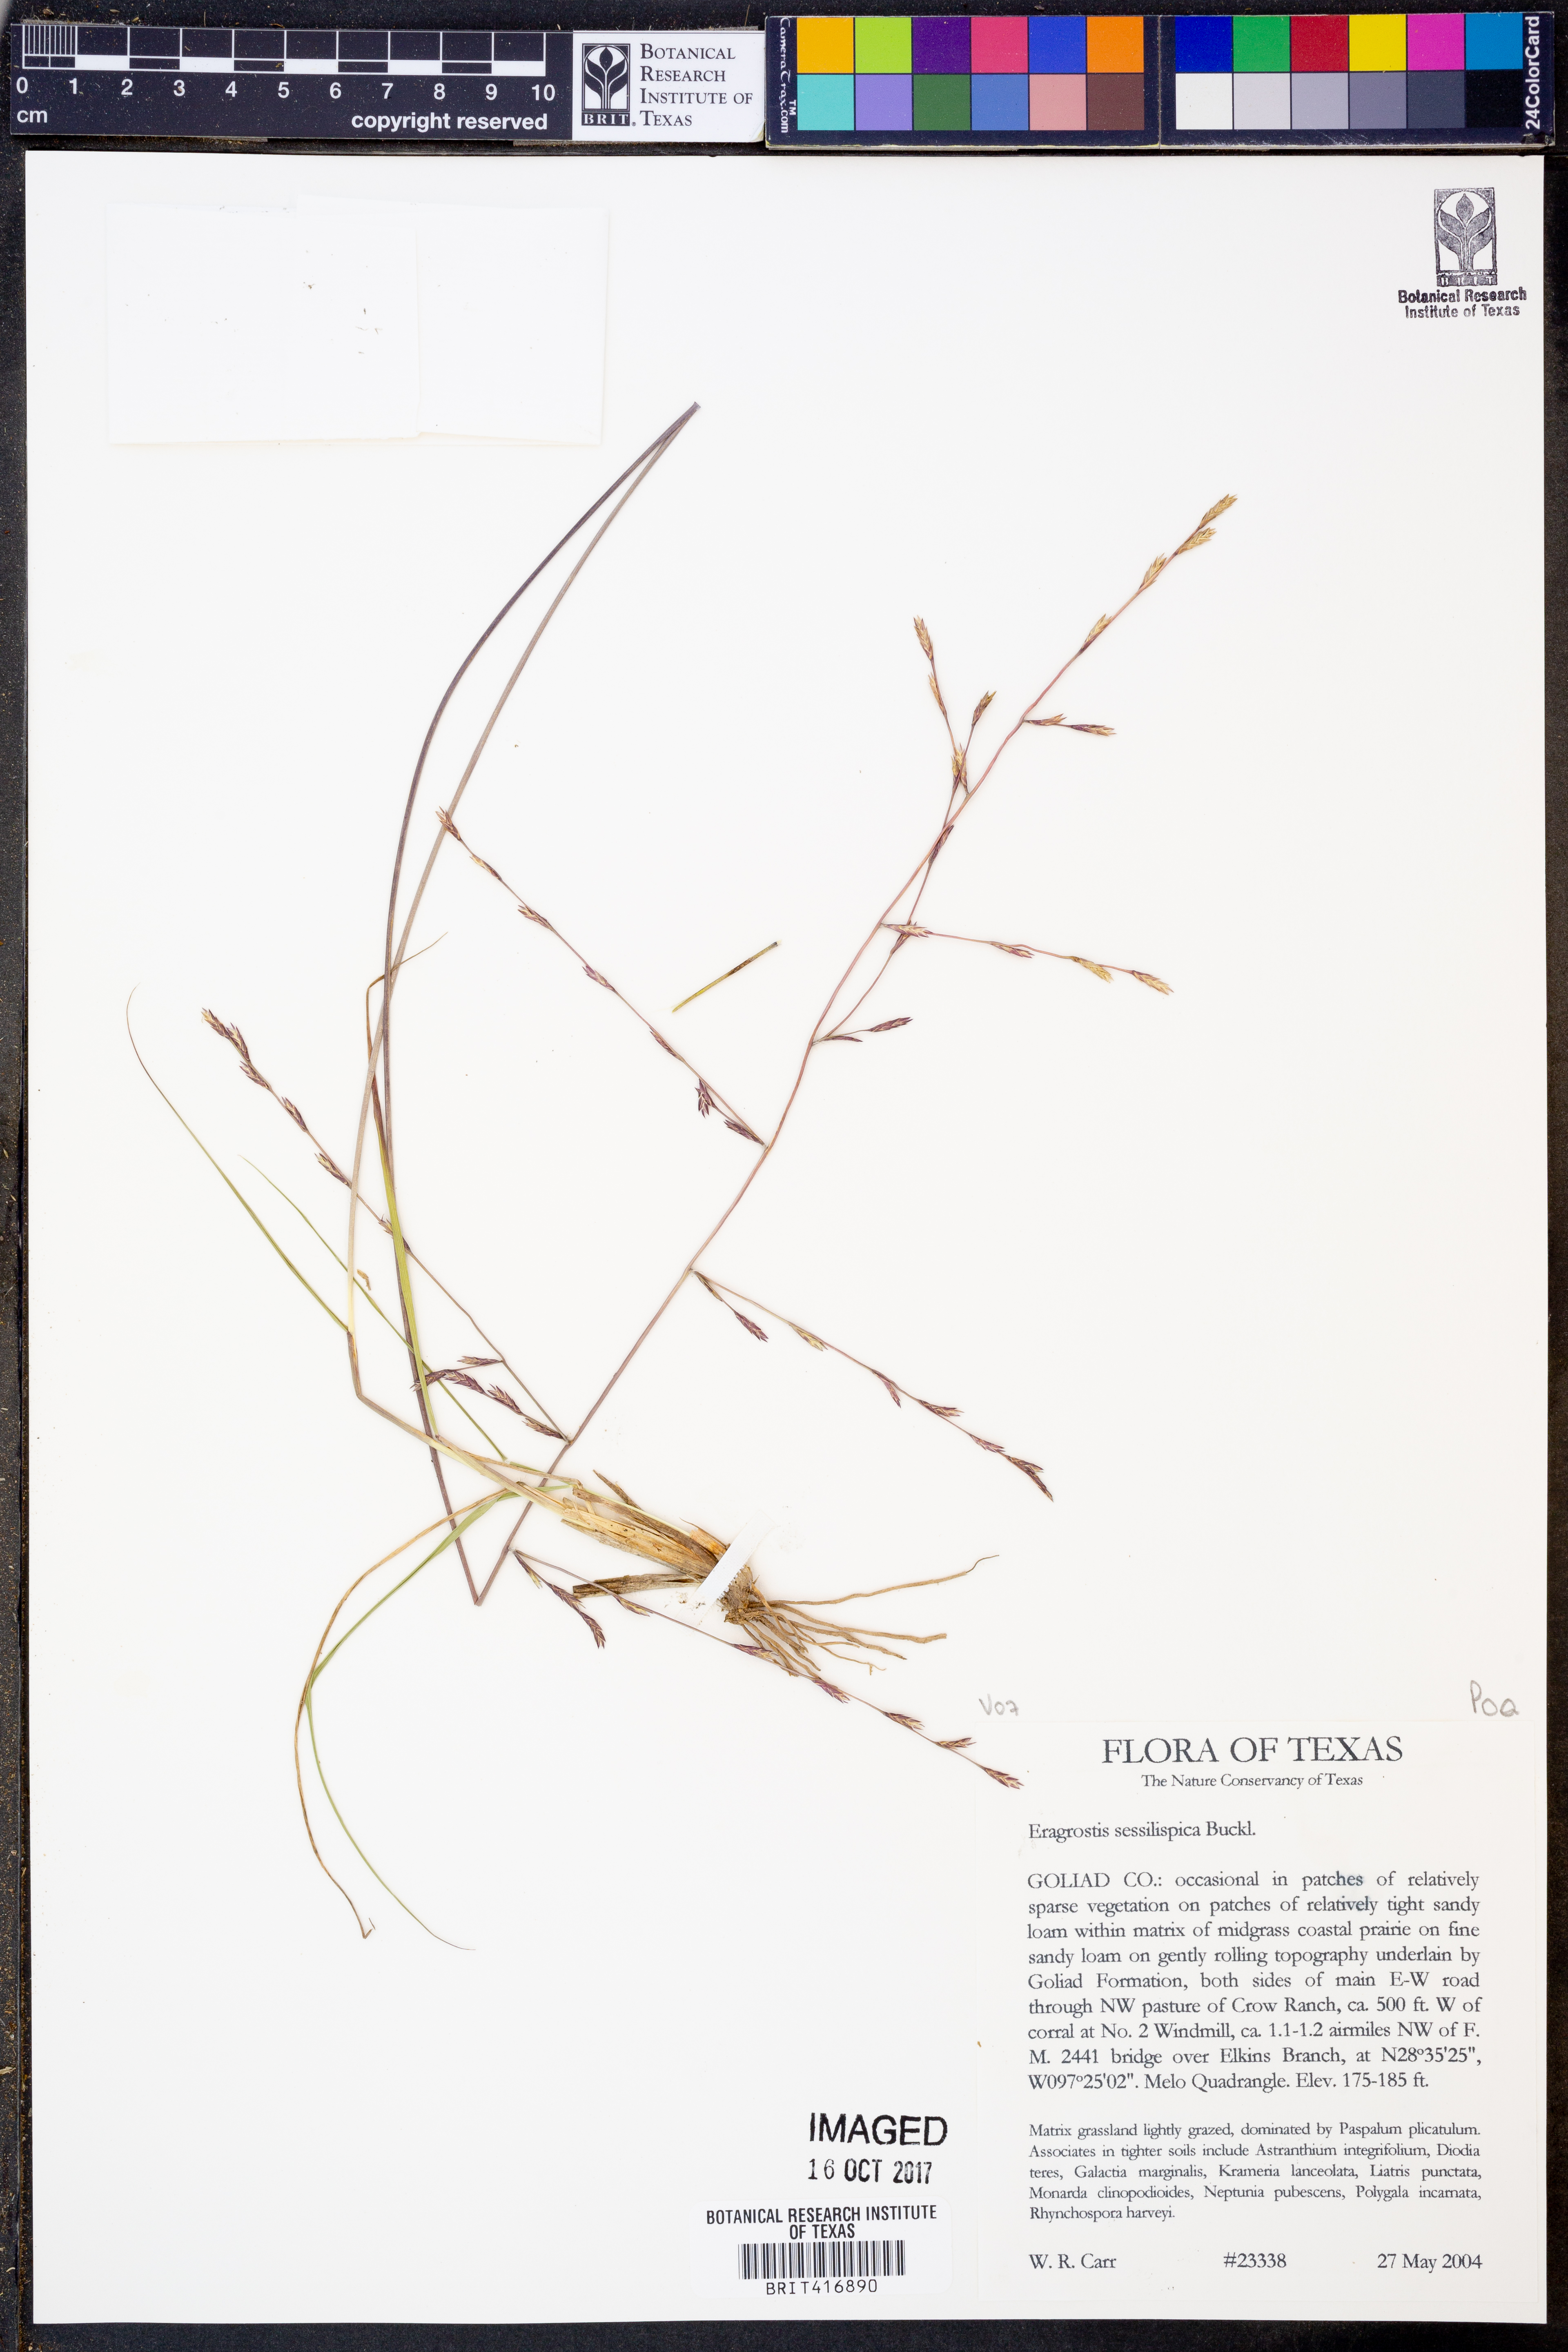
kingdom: Plantae
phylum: Tracheophyta
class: Liliopsida
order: Poales
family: Poaceae
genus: Eragrostis
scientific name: Eragrostis sessilispica
